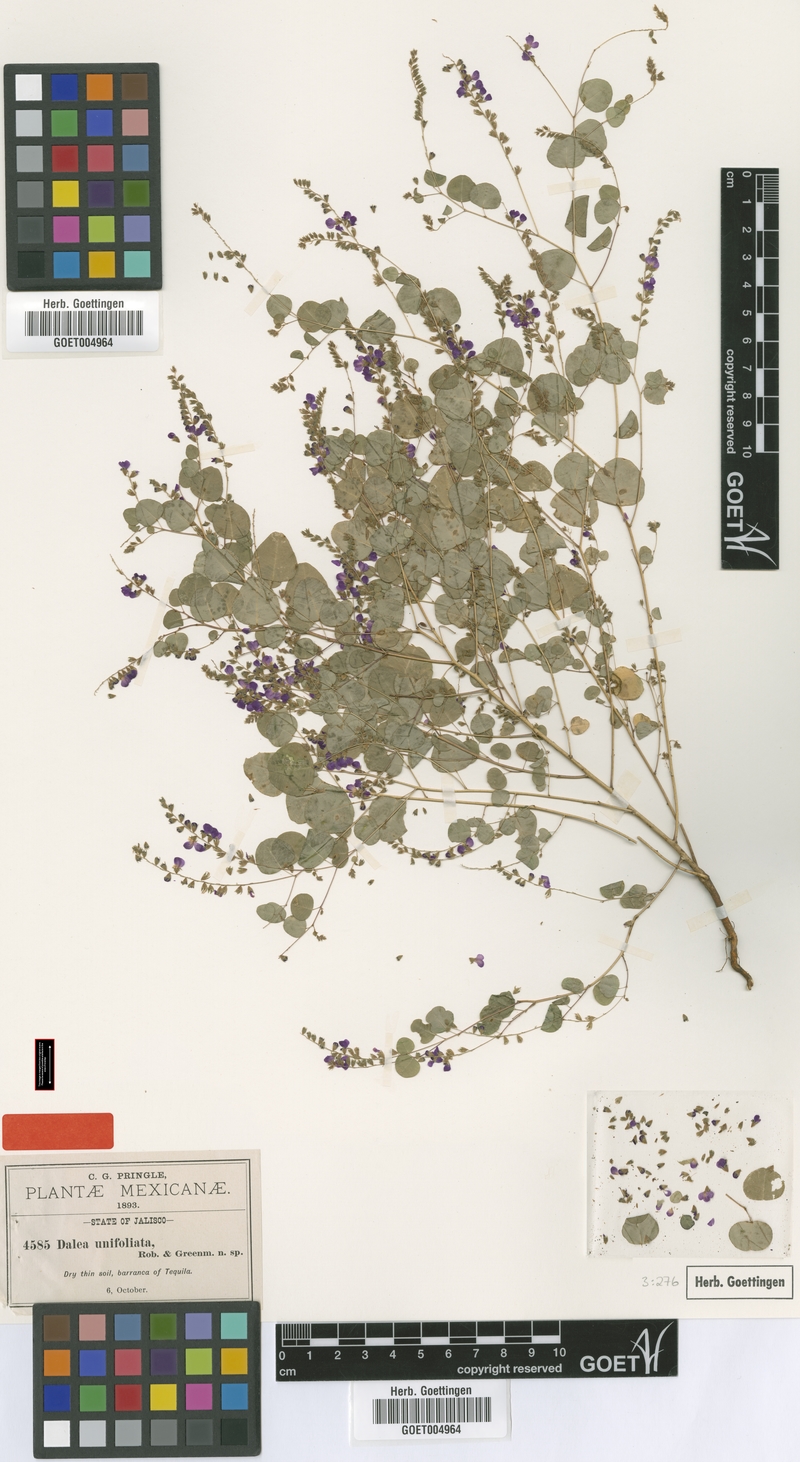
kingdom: Plantae
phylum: Tracheophyta
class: Magnoliopsida
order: Fabales
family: Fabaceae
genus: Marina
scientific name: Marina unifoliolata
